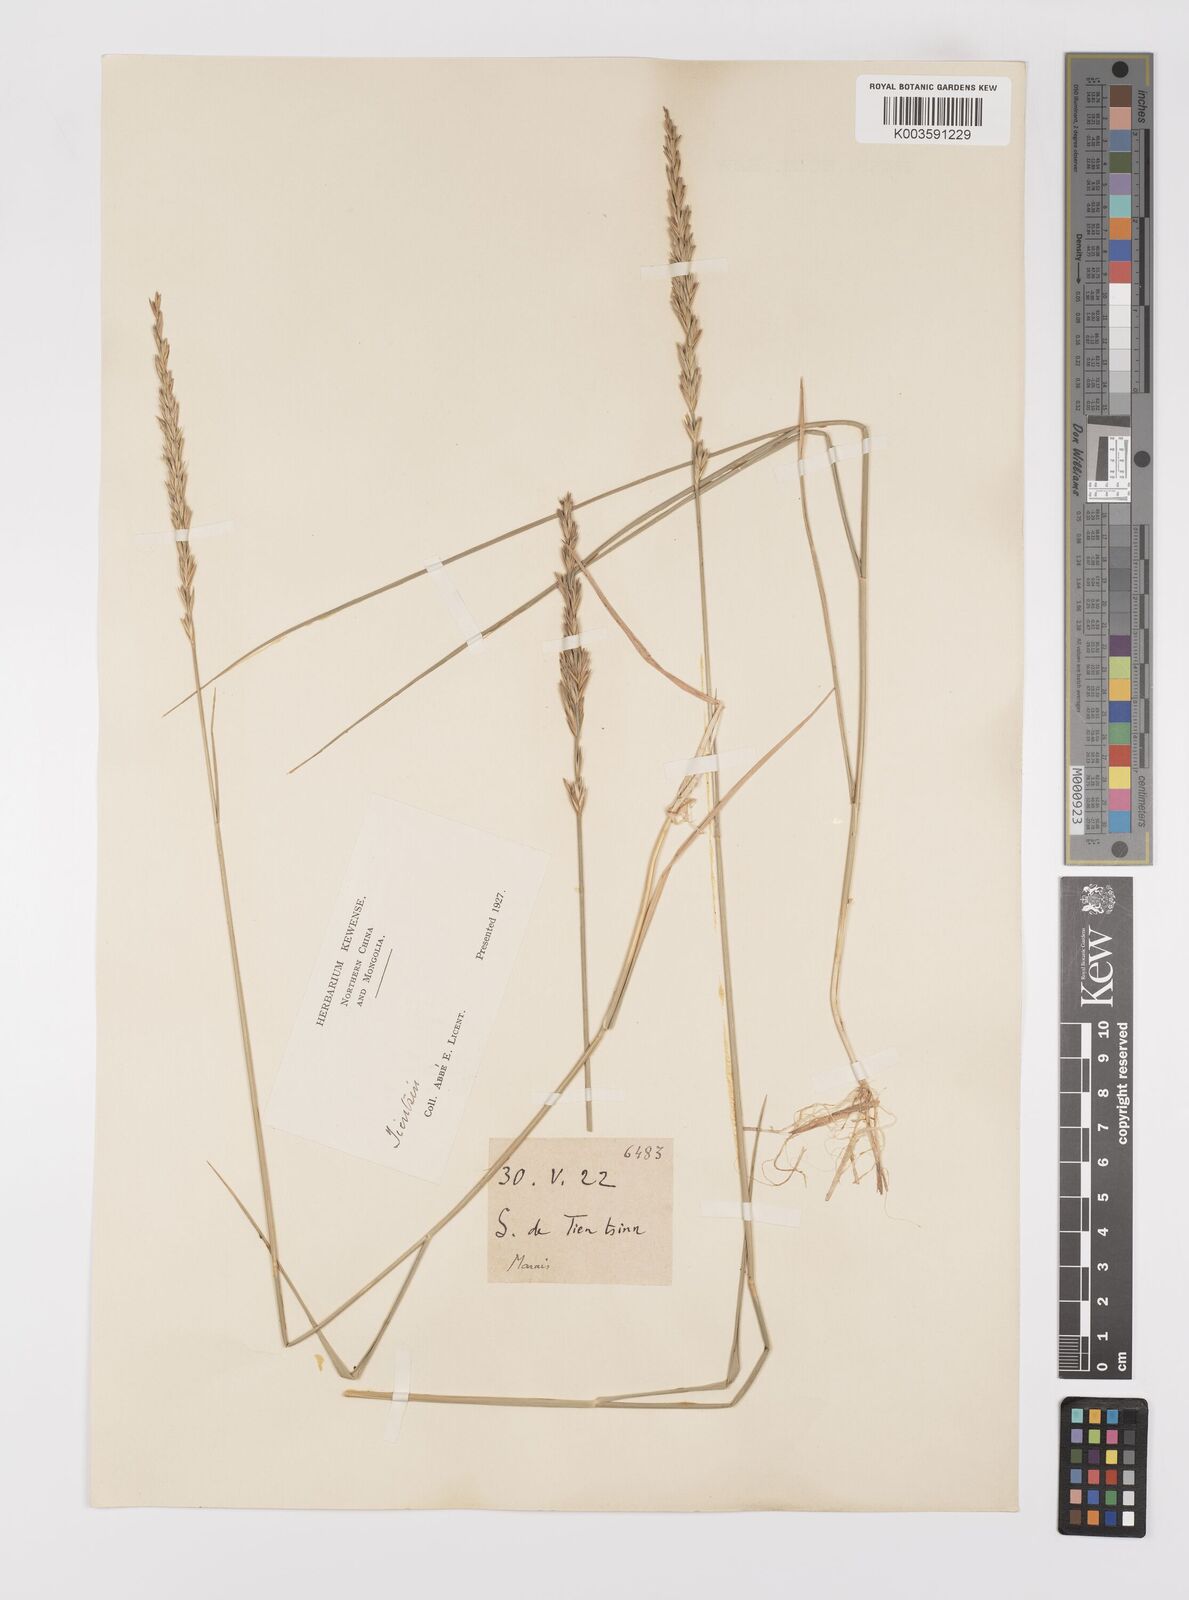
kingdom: Plantae
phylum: Tracheophyta
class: Liliopsida
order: Poales
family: Poaceae
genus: Leymus
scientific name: Leymus chinensis
